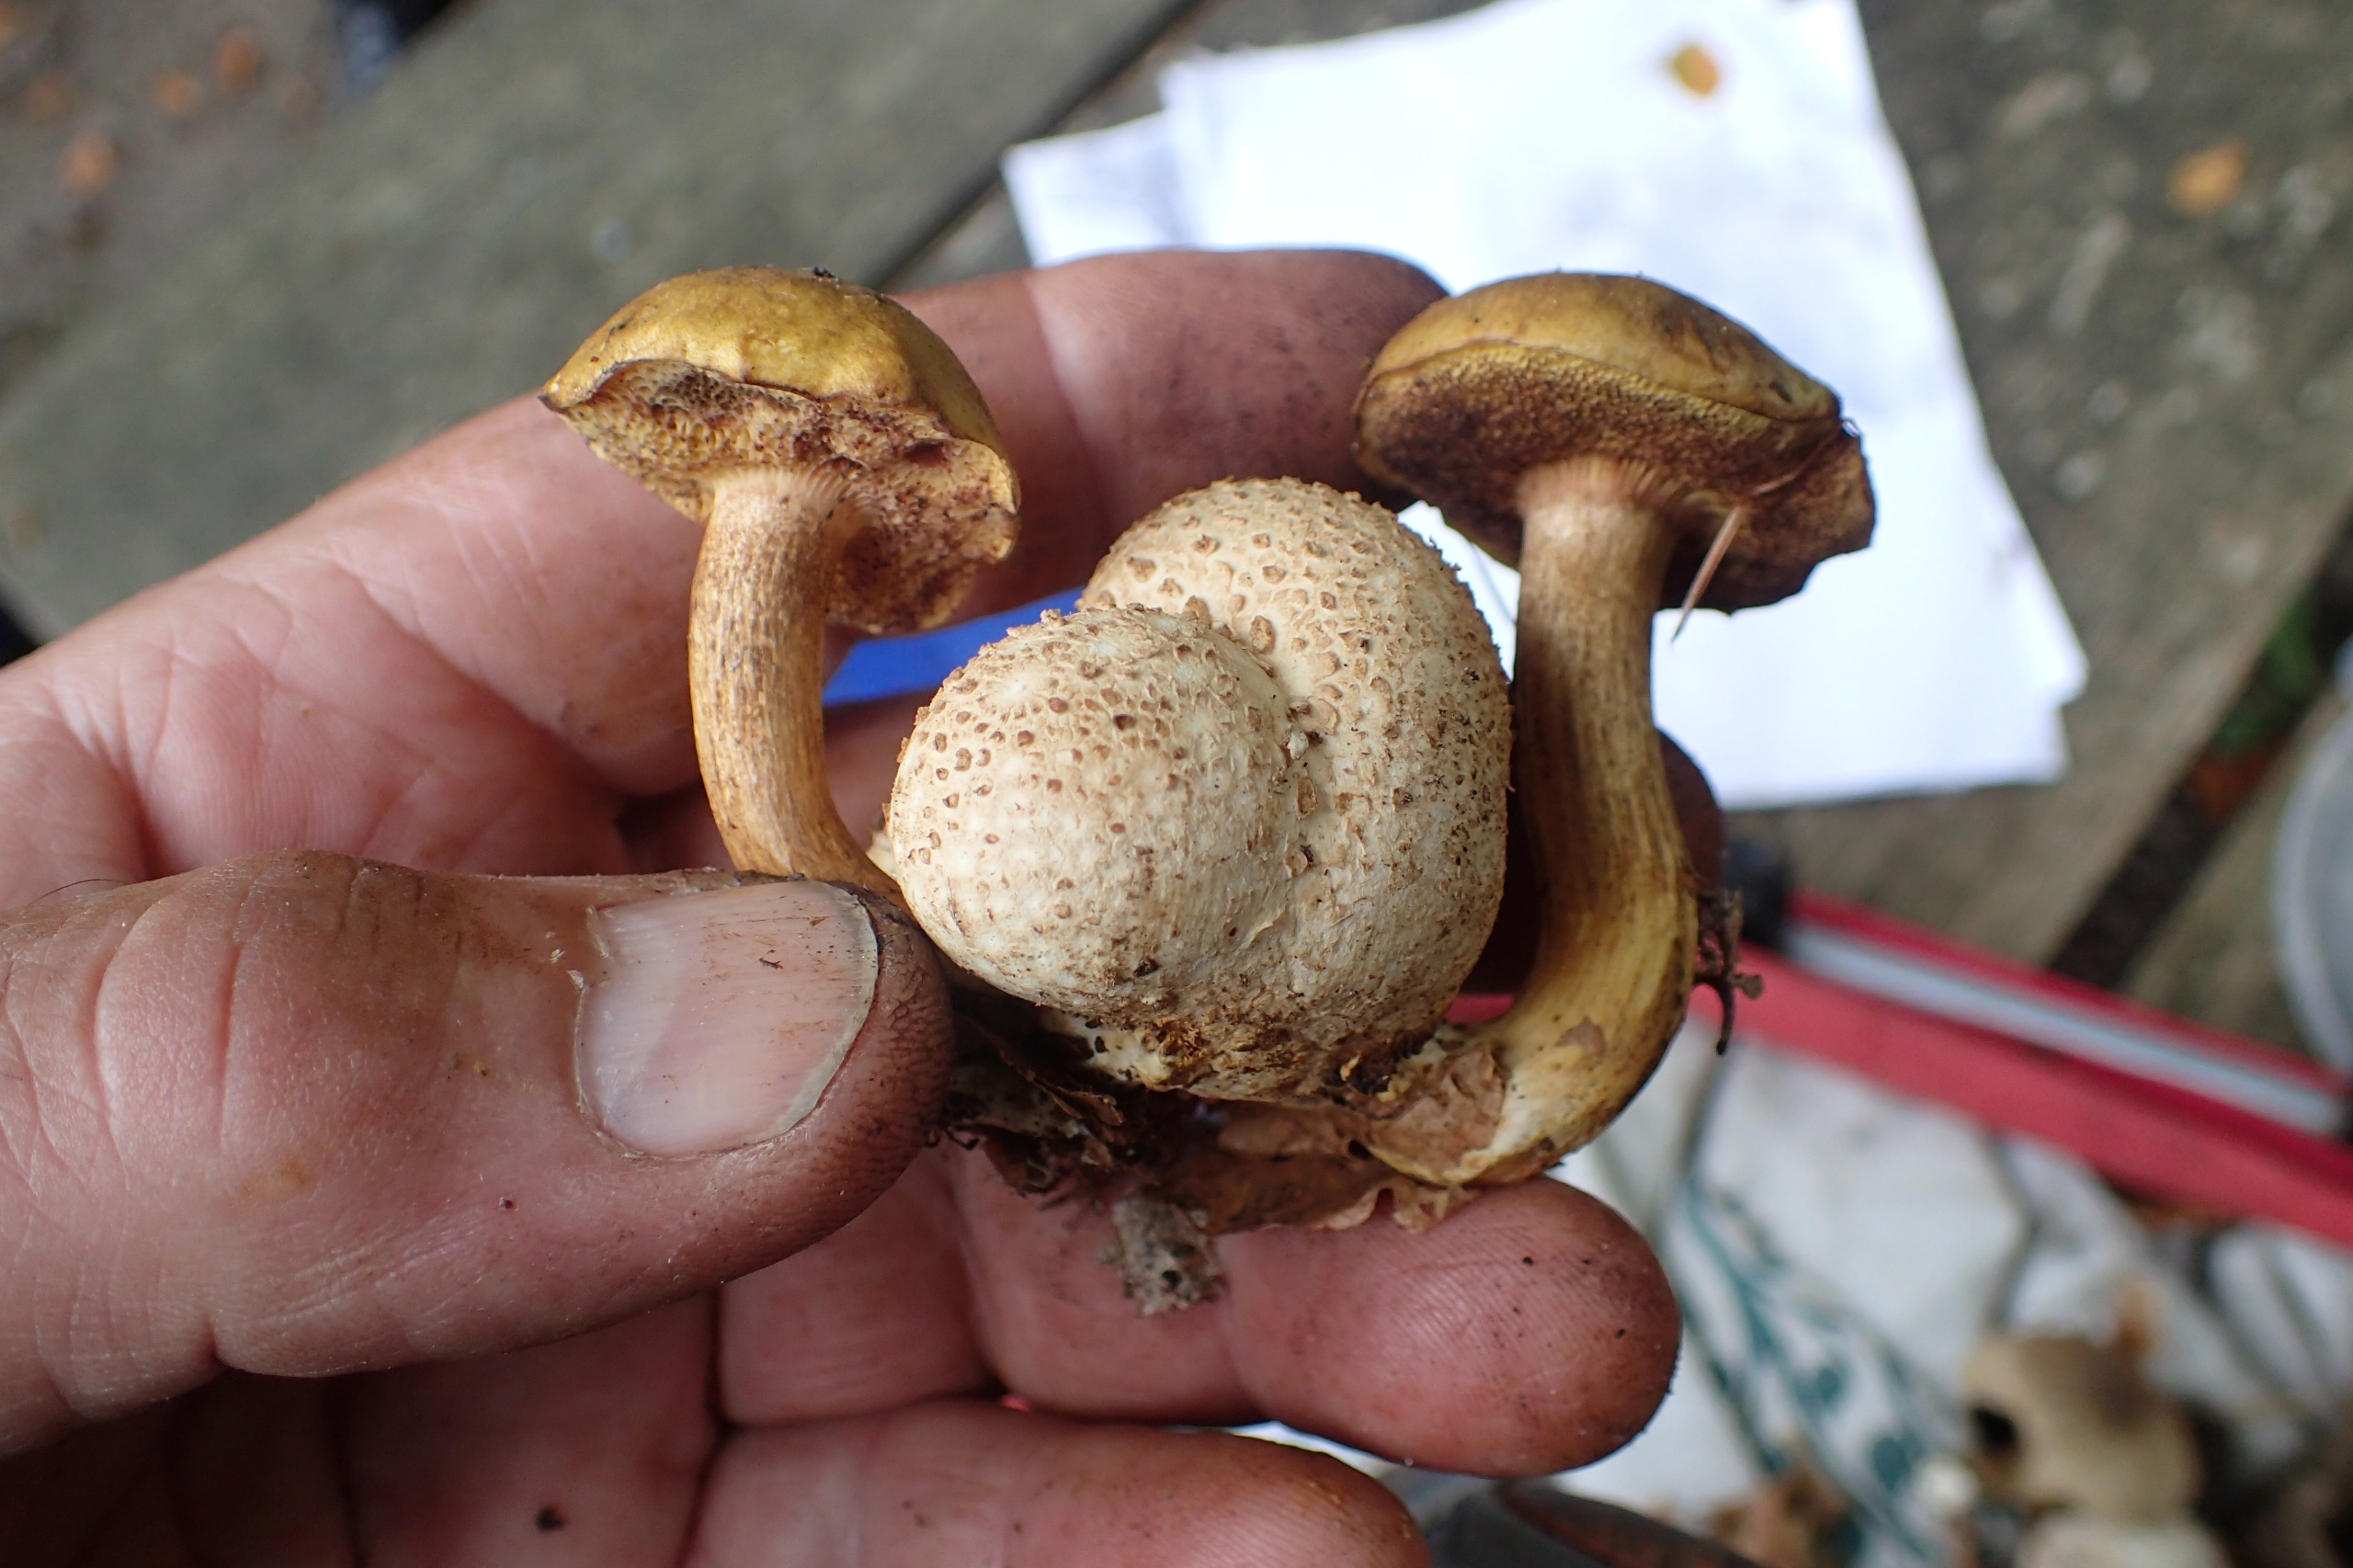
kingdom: Fungi
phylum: Basidiomycota
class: Agaricomycetes
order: Boletales
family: Boletaceae
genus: Pseudoboletus
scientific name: Pseudoboletus parasiticus
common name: Snyltende rørhat
